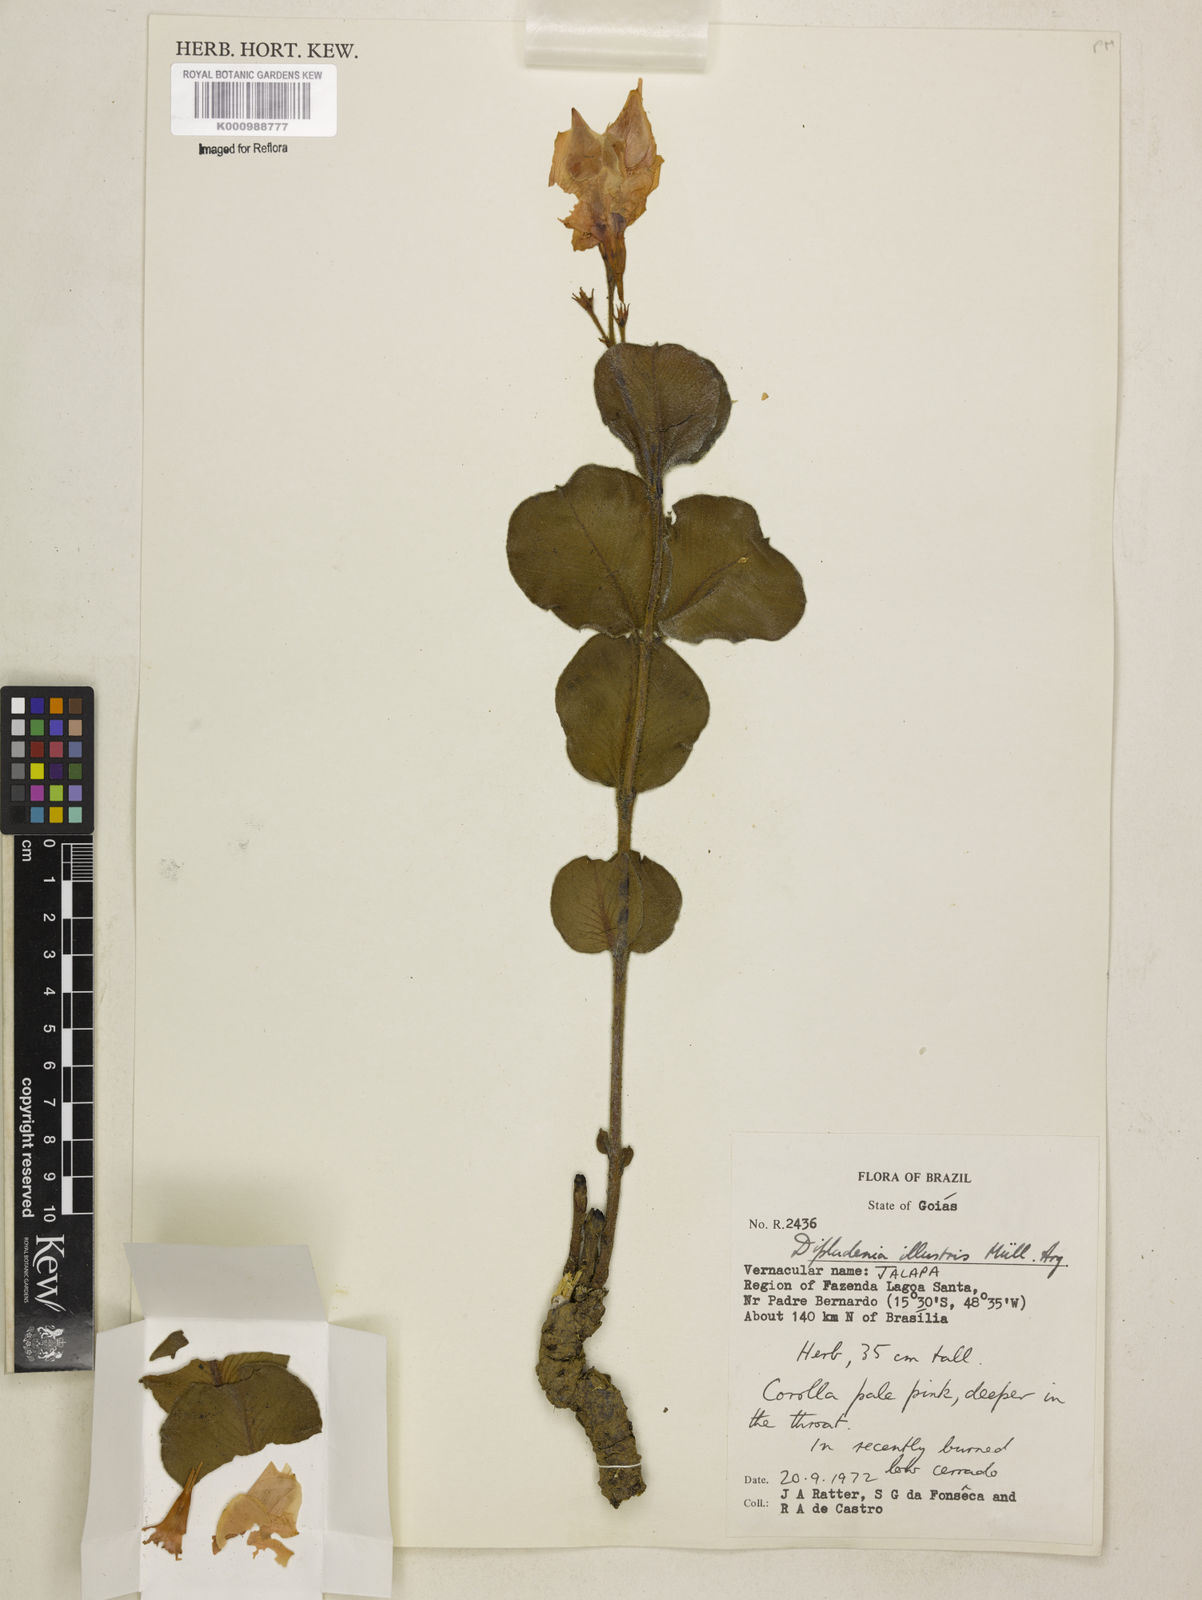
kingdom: Plantae
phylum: Tracheophyta
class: Magnoliopsida
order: Gentianales
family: Apocynaceae
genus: Mandevilla
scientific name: Mandevilla illustris
